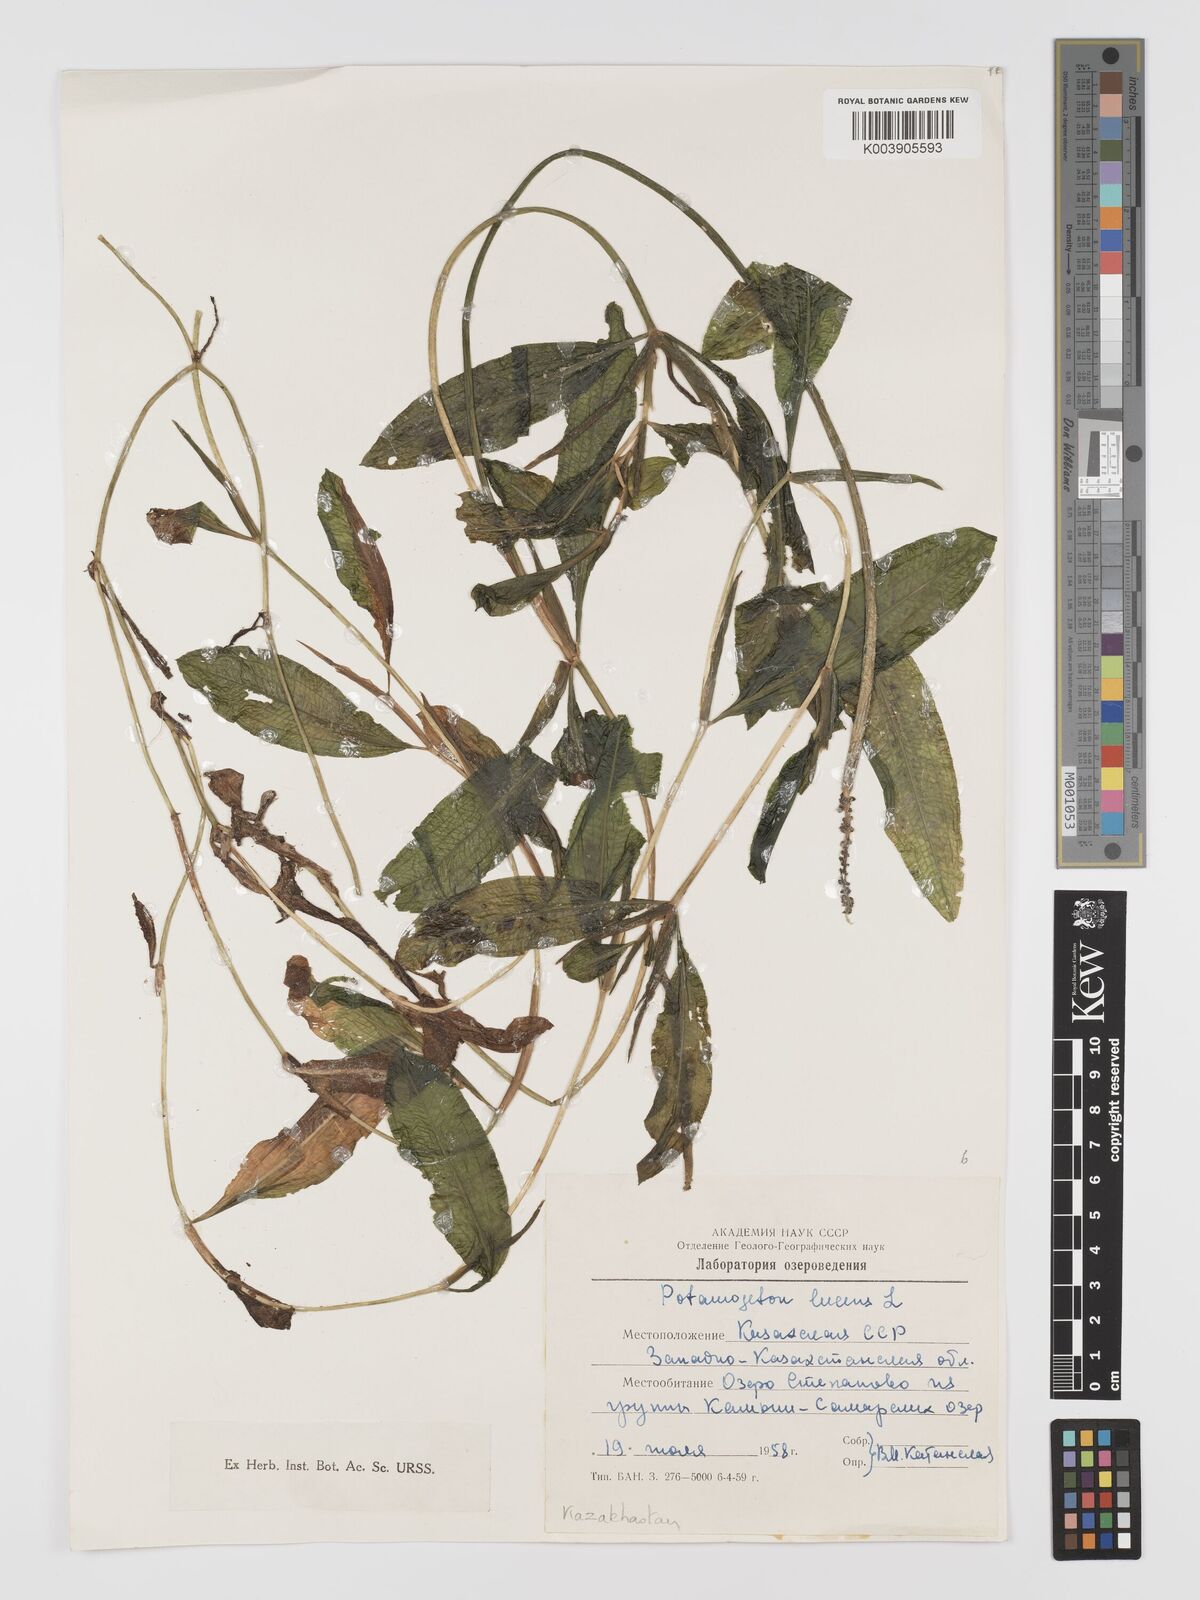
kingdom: Plantae
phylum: Tracheophyta
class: Liliopsida
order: Alismatales
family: Potamogetonaceae
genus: Potamogeton
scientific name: Potamogeton lucens
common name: Shining pondweed
